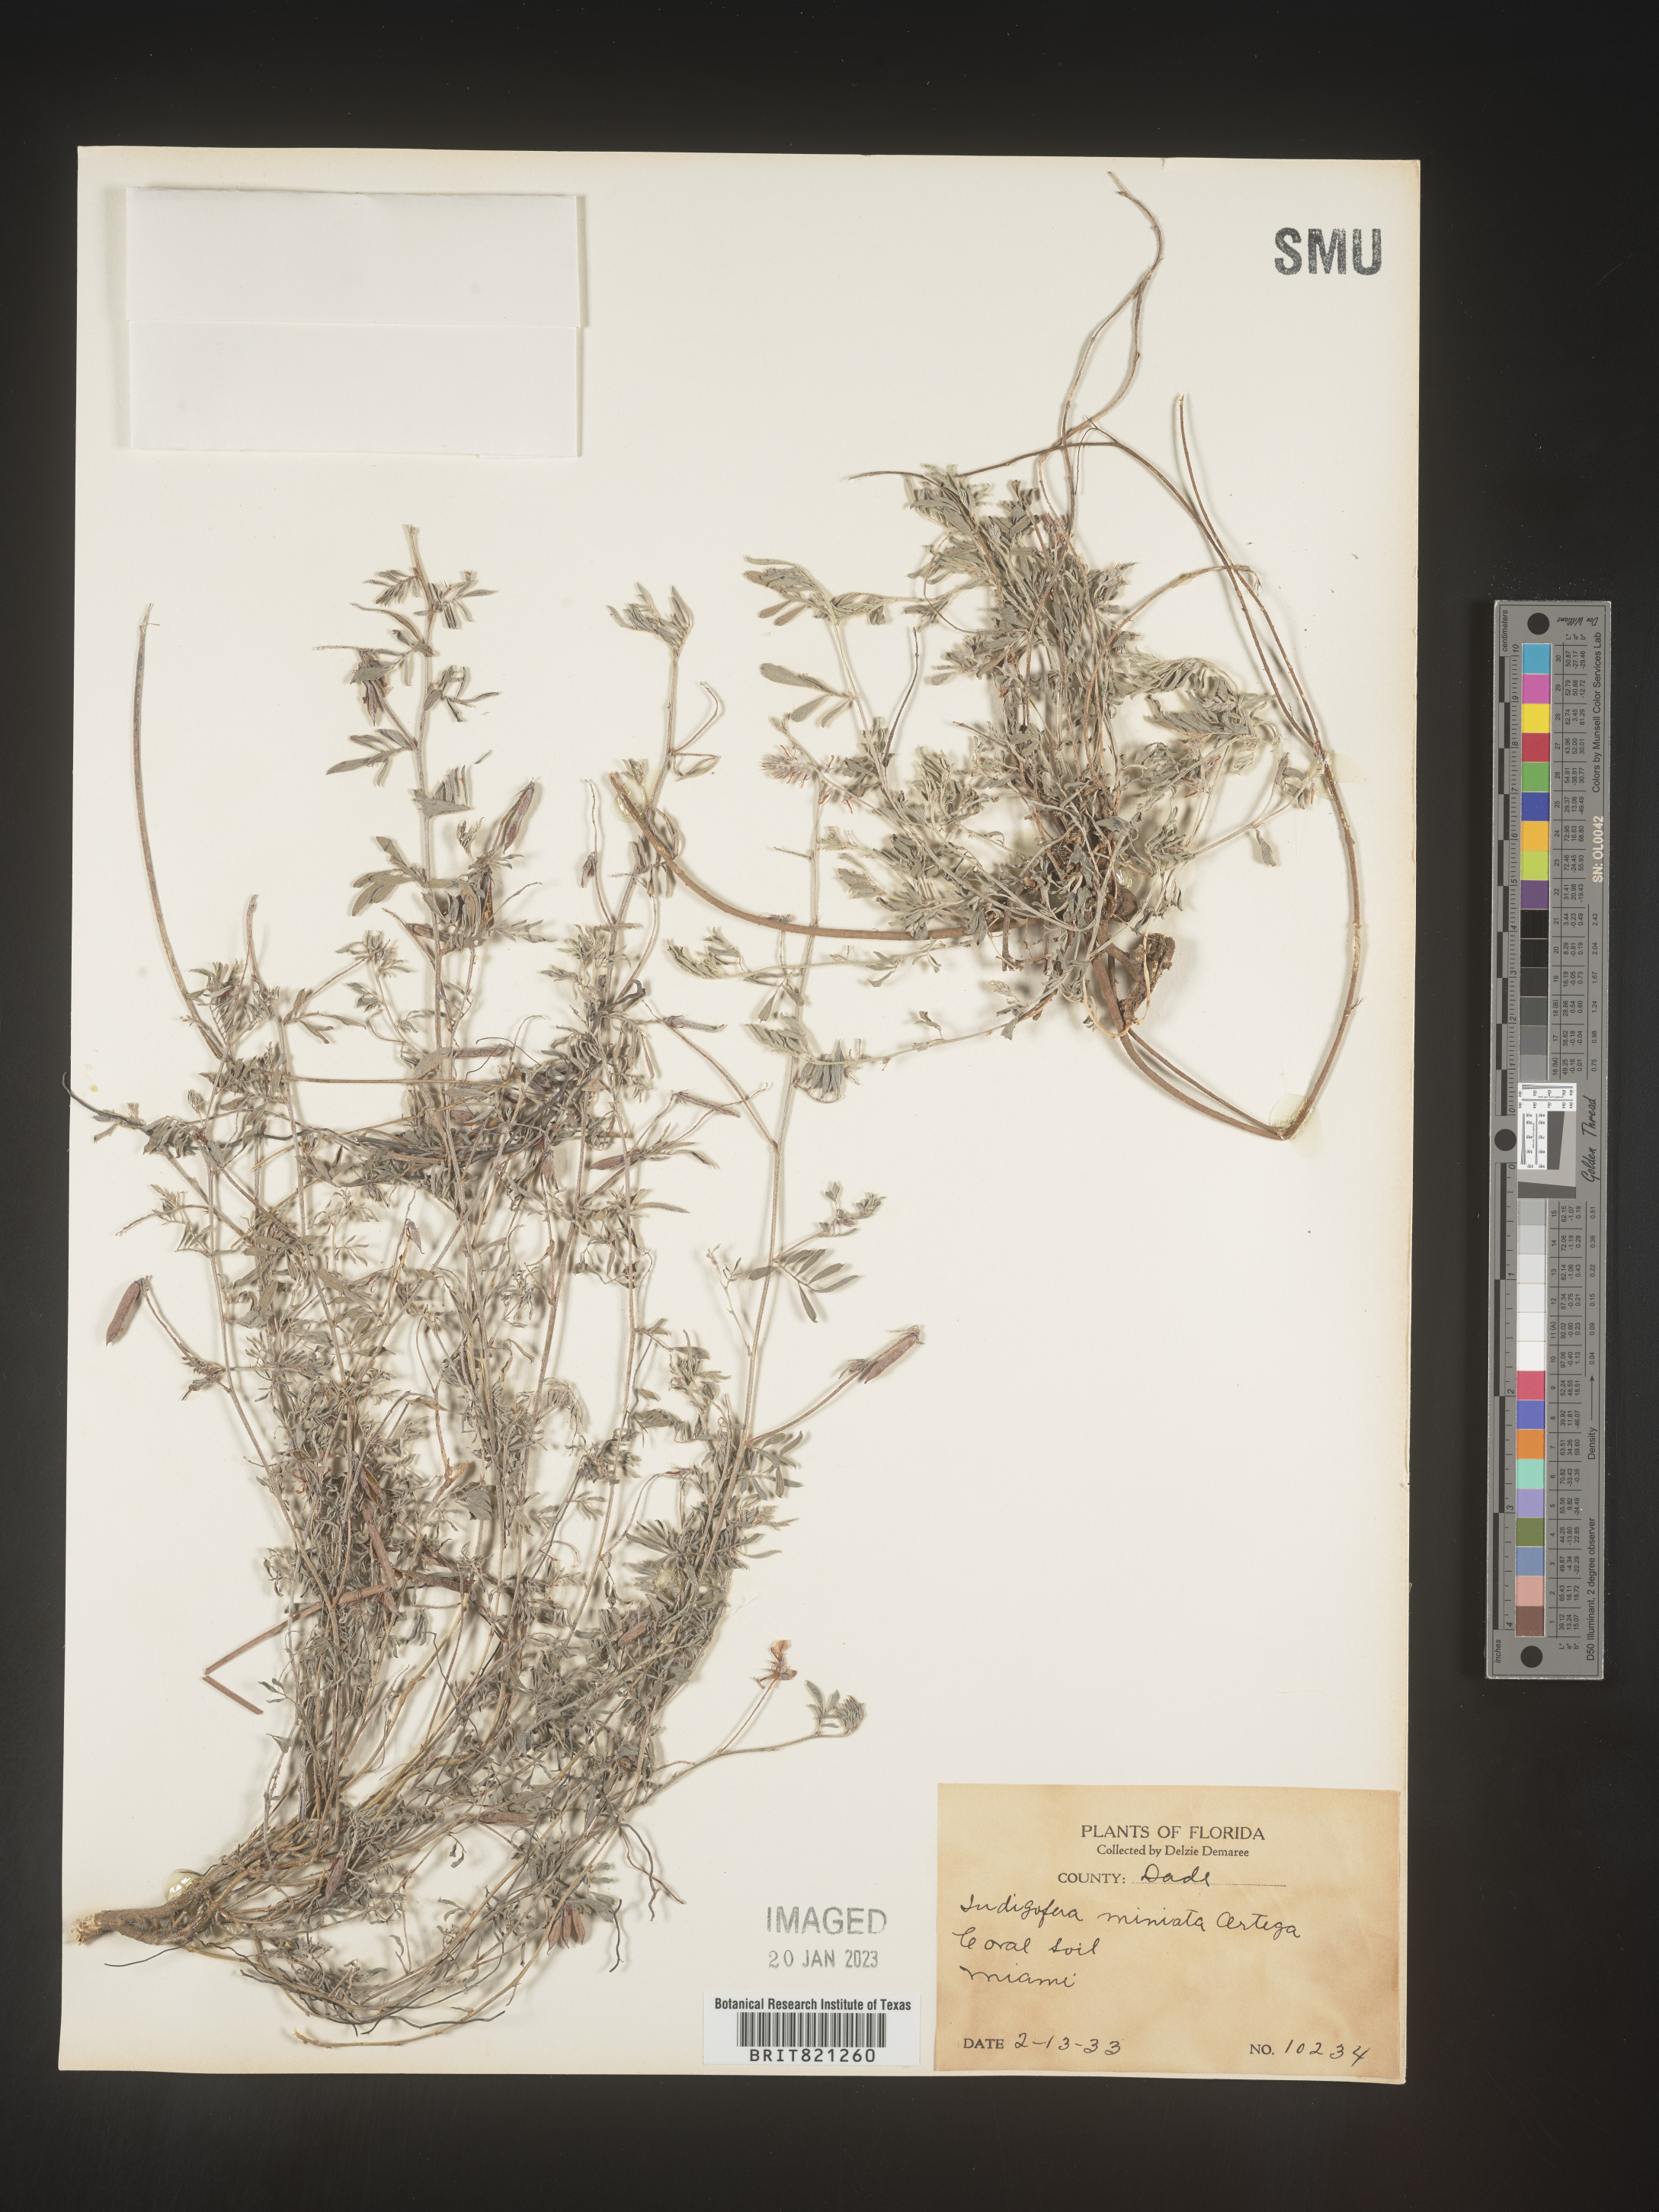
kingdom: Plantae
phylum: Tracheophyta
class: Magnoliopsida
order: Fabales
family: Fabaceae
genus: Indigofera
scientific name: Indigofera miniata
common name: Coast indigo
